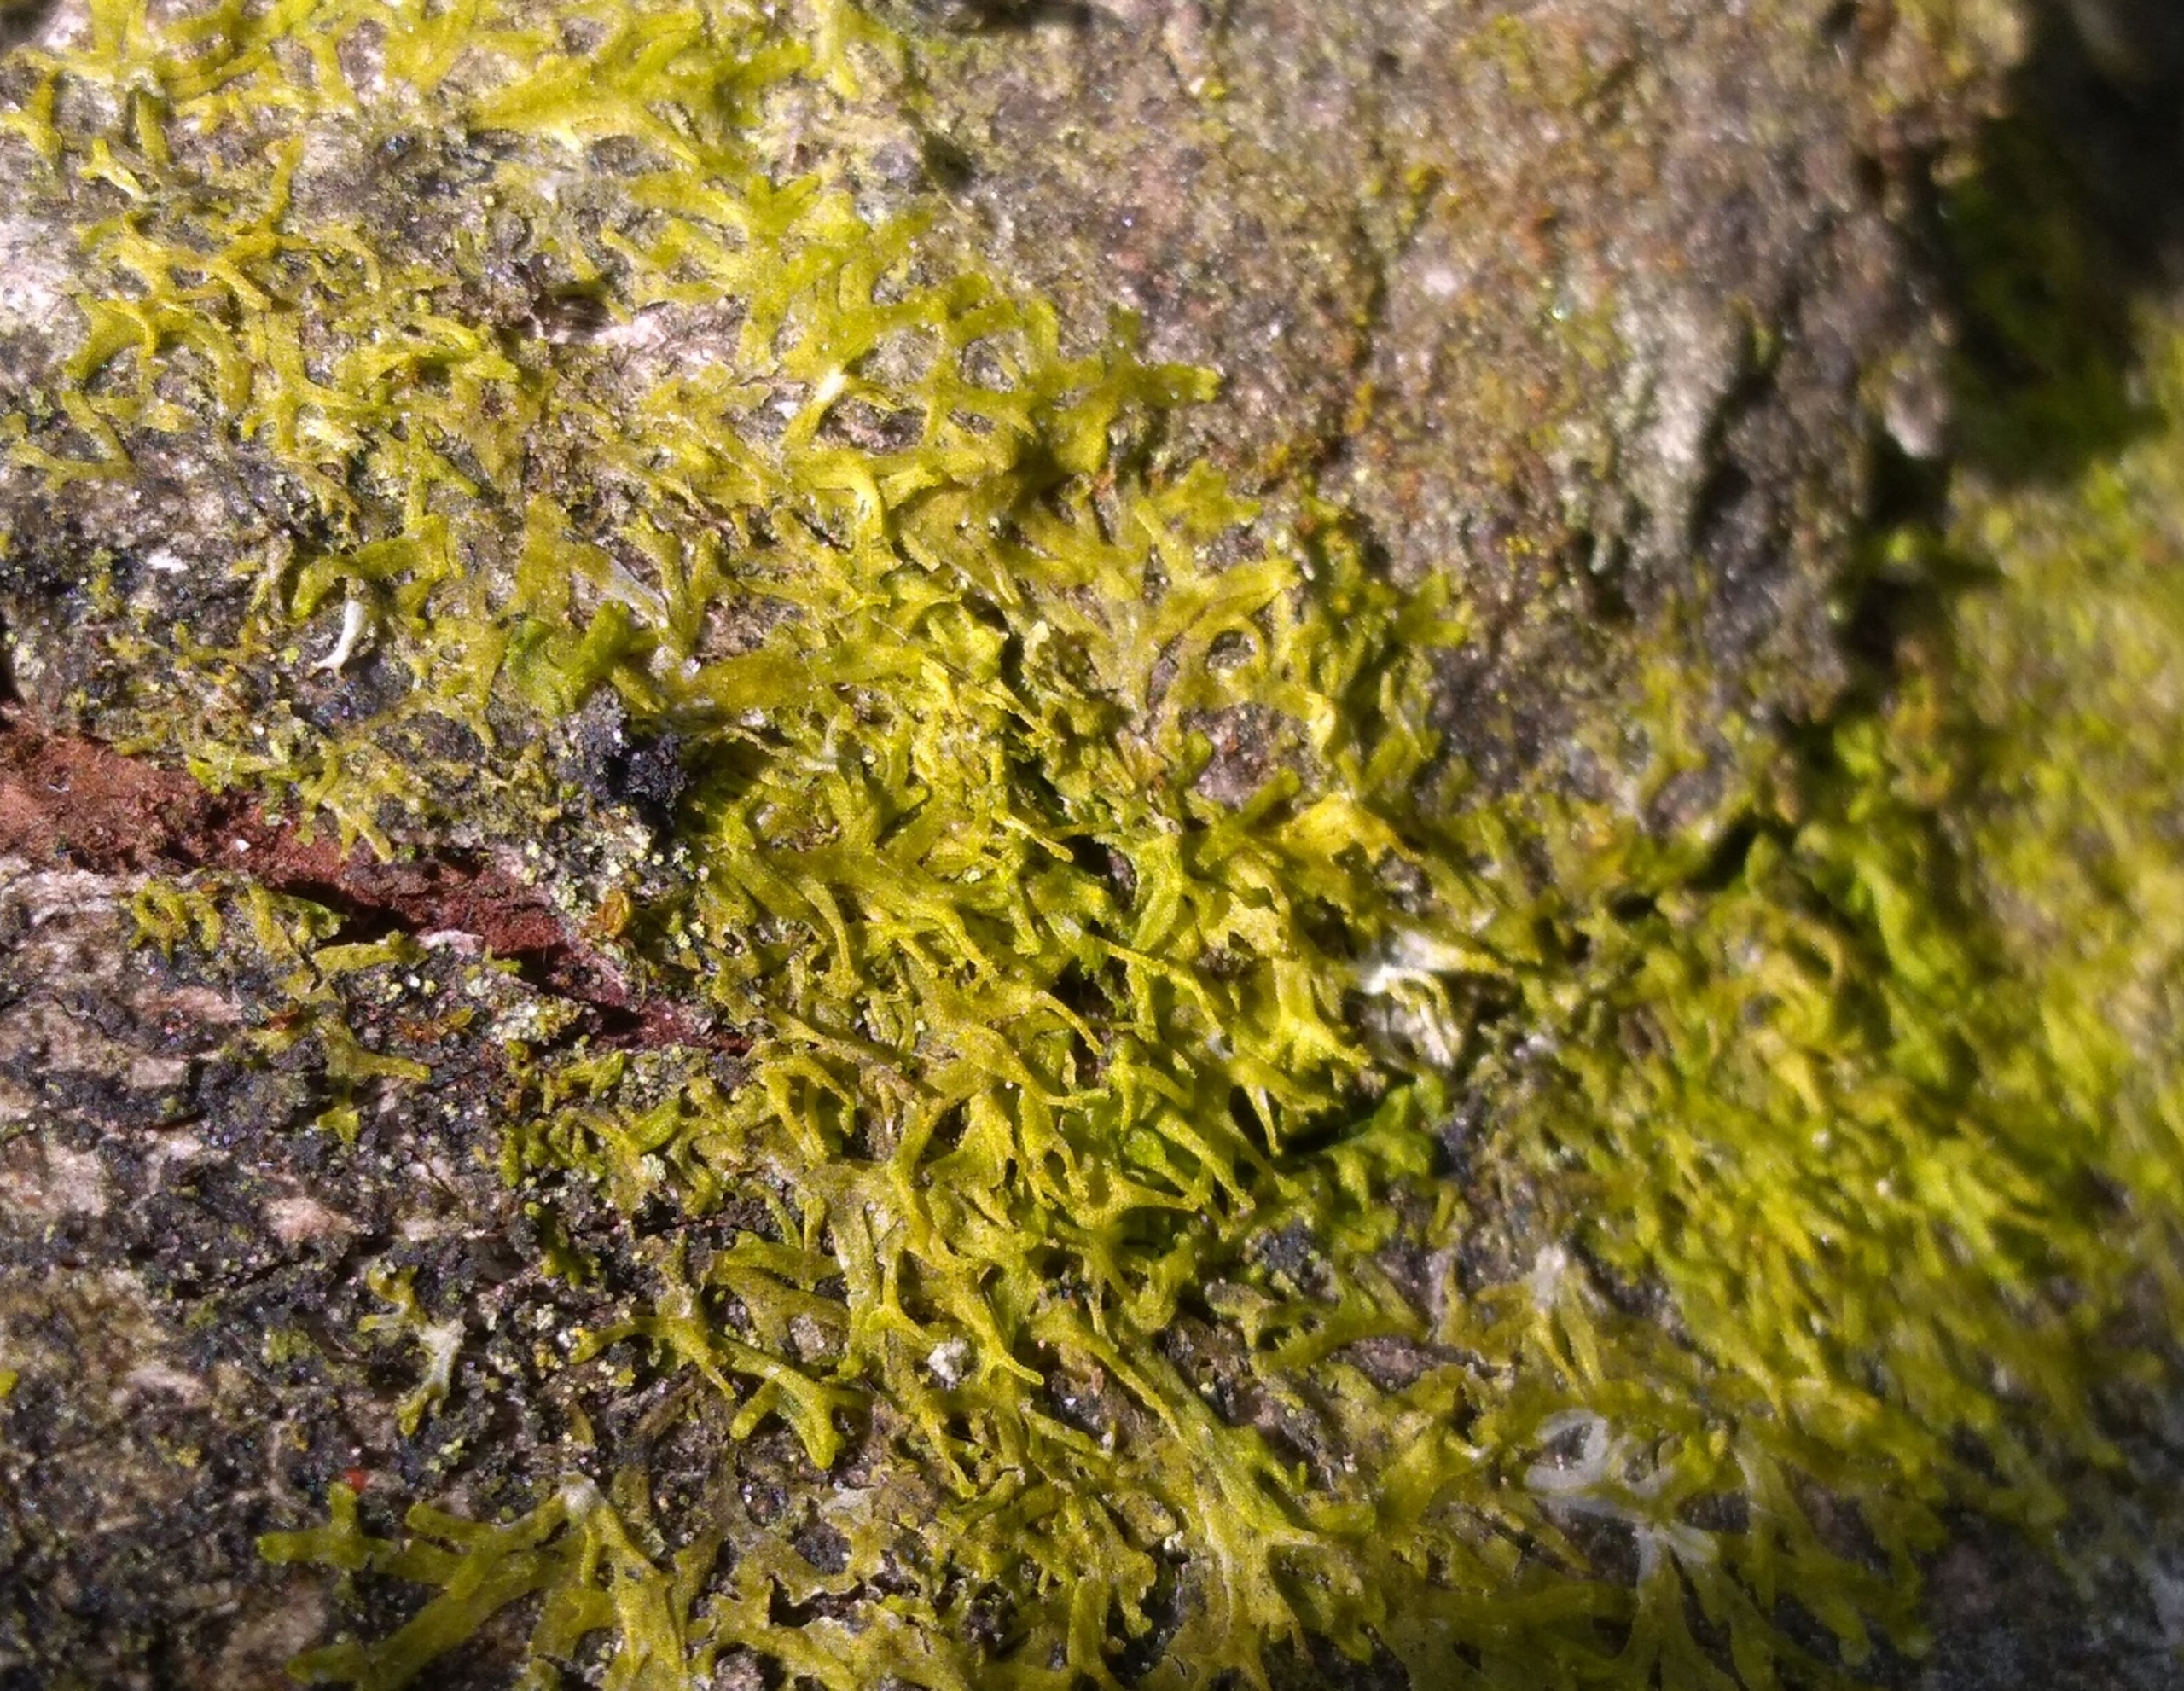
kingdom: Plantae
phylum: Marchantiophyta
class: Jungermanniopsida
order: Metzgeriales
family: Aneuraceae
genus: Riccardia
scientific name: Riccardia palmata
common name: Blågrøn gaffelløv
